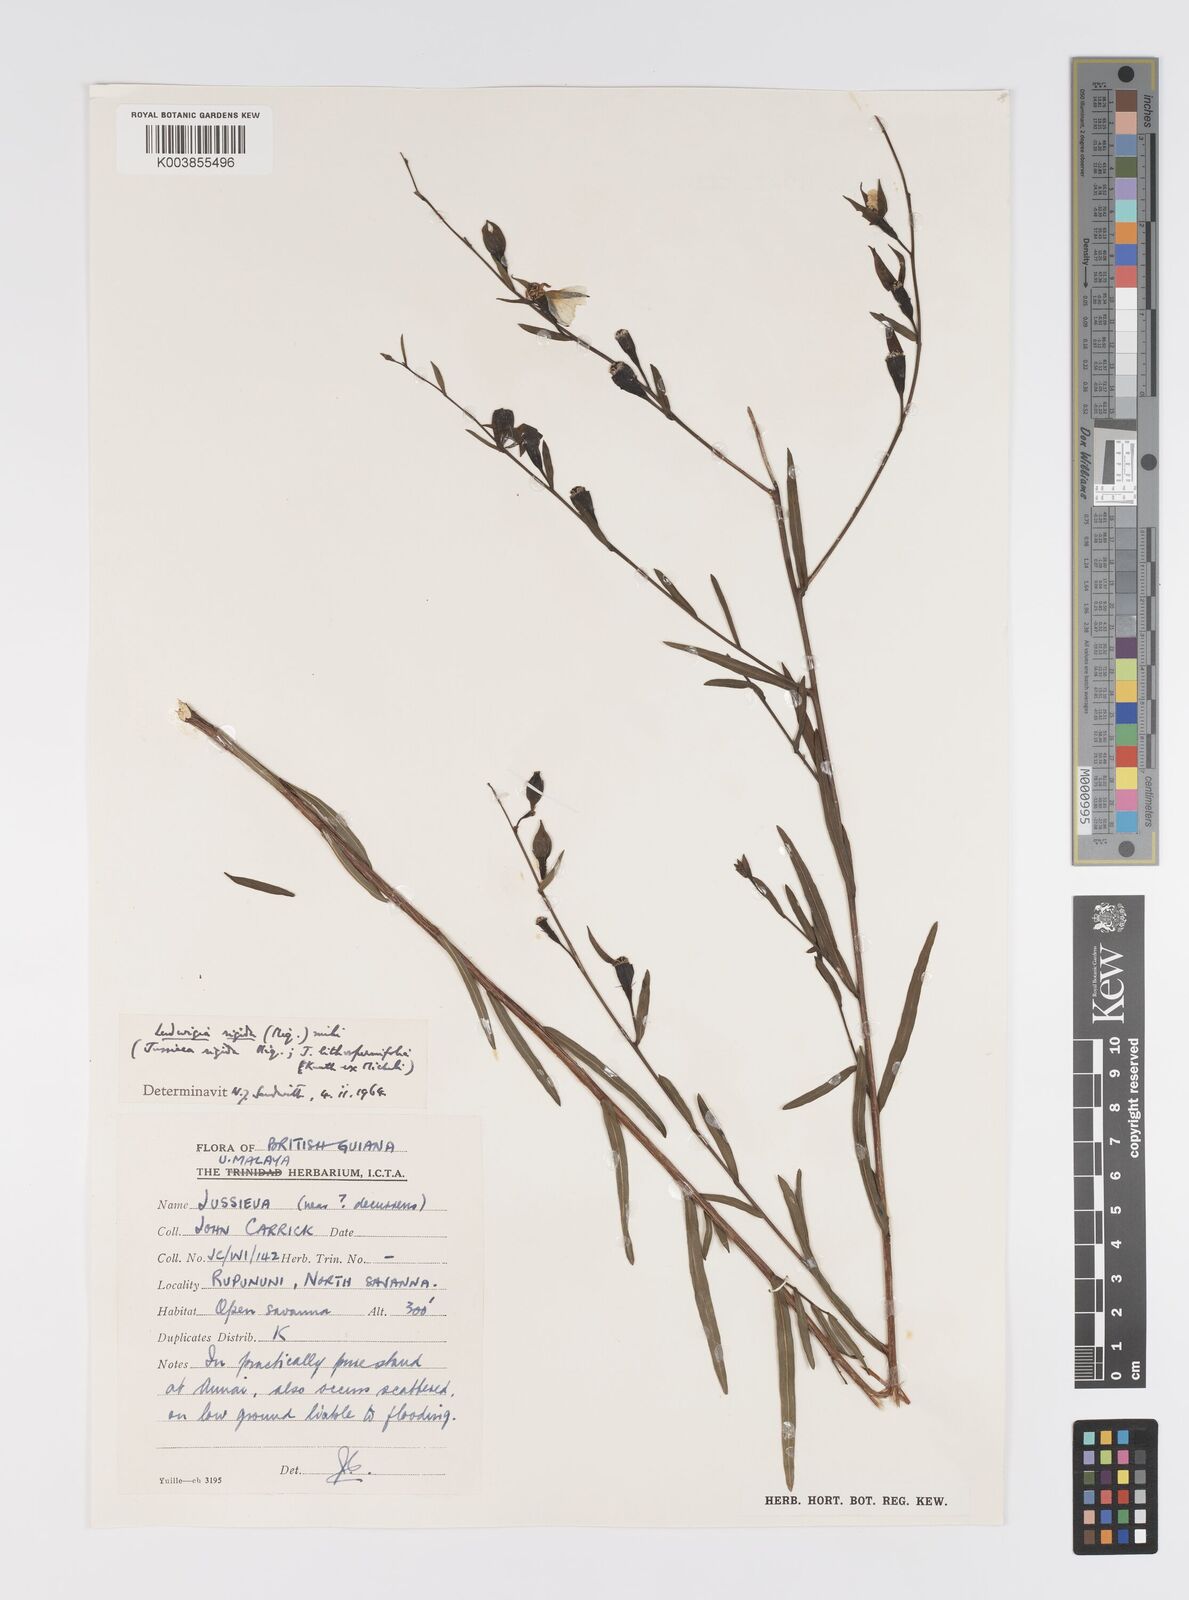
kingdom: Plantae
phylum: Tracheophyta
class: Magnoliopsida
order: Myrtales
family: Onagraceae
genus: Ludwigia
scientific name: Ludwigia rigida
